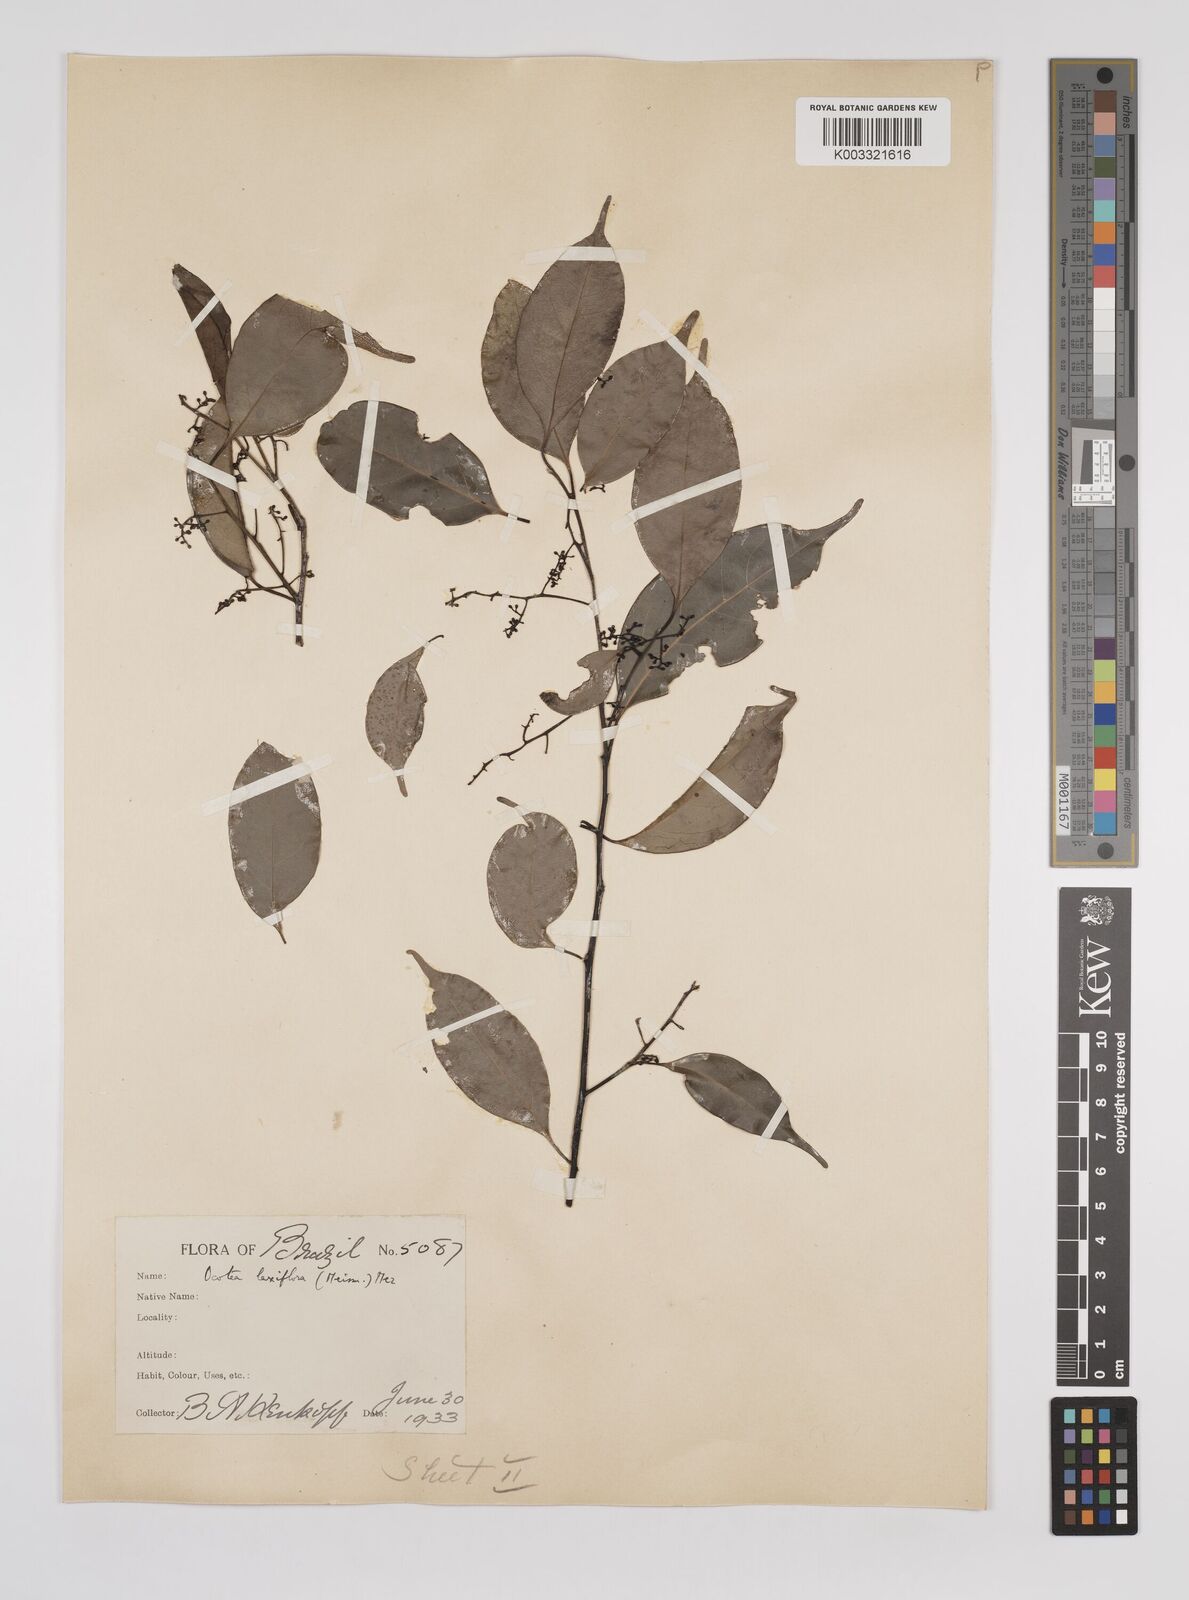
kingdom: Plantae
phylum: Tracheophyta
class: Magnoliopsida
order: Laurales
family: Lauraceae
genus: Ocotea
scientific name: Ocotea pauciflora
